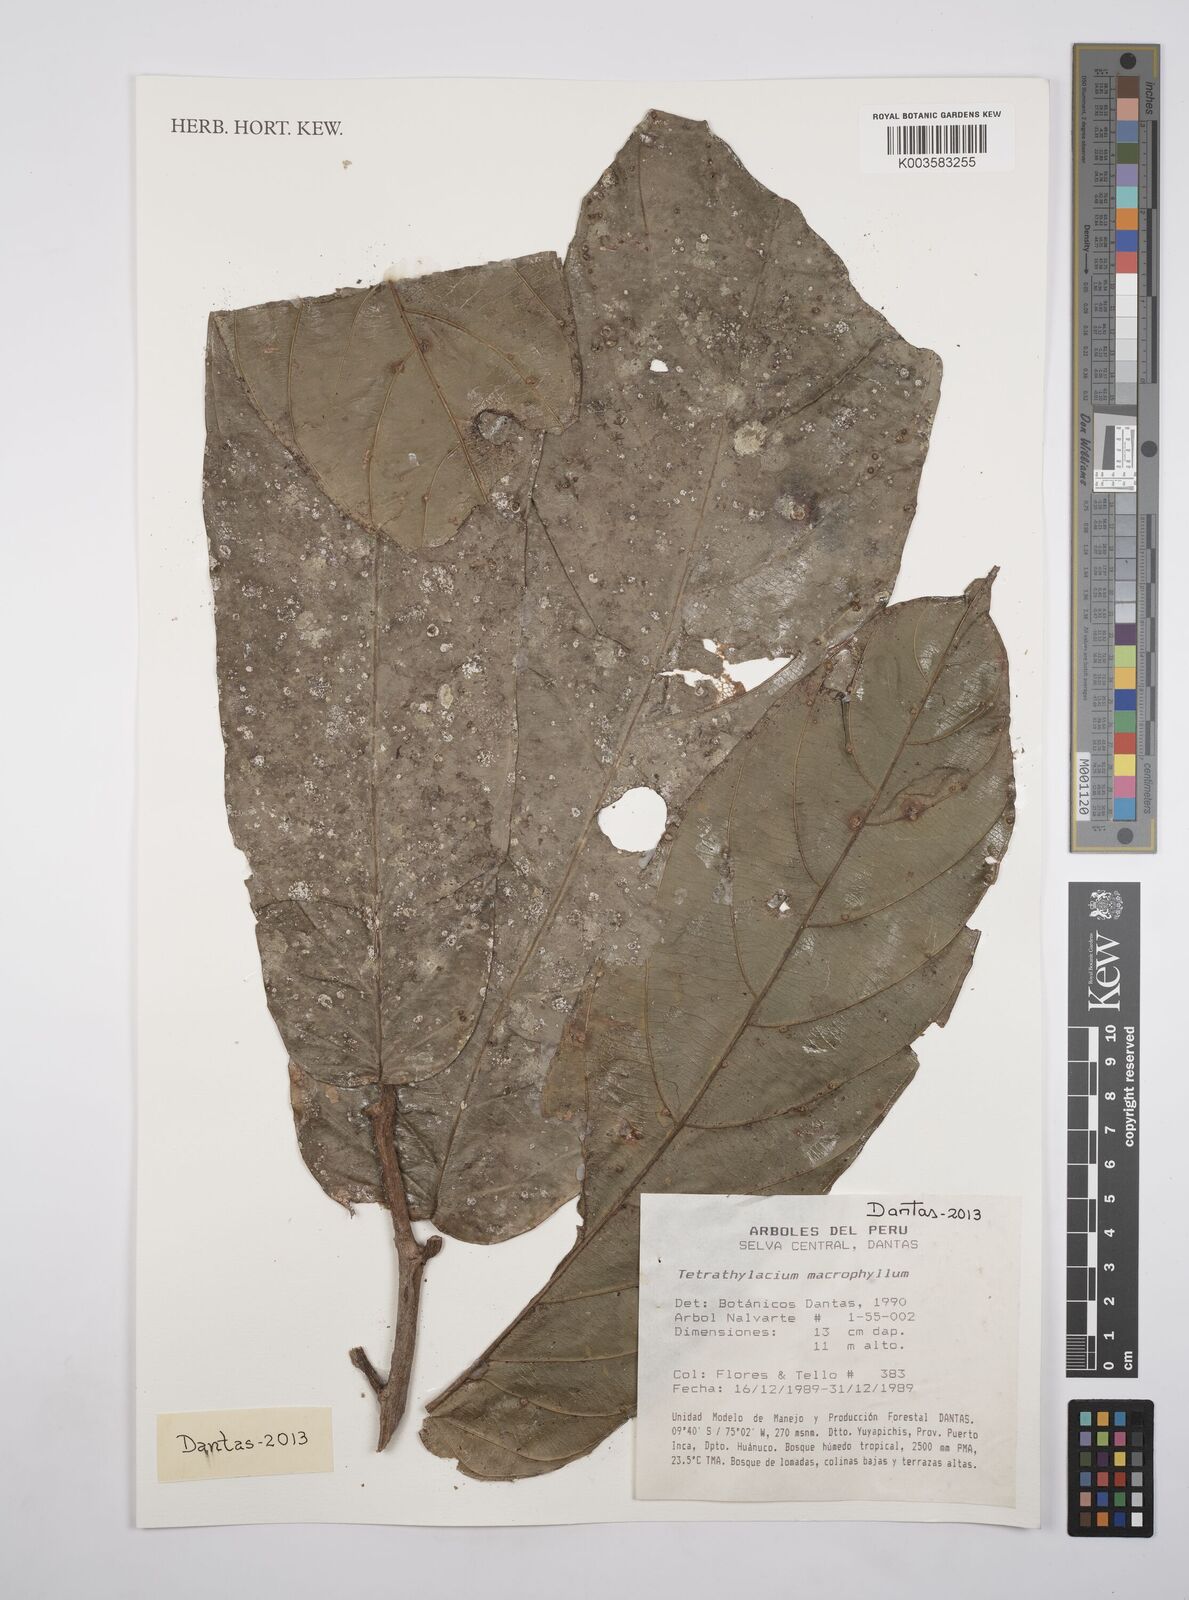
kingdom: Plantae
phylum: Tracheophyta
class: Magnoliopsida
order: Malpighiales
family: Salicaceae
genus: Tetrathylacium
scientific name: Tetrathylacium macrophyllum
